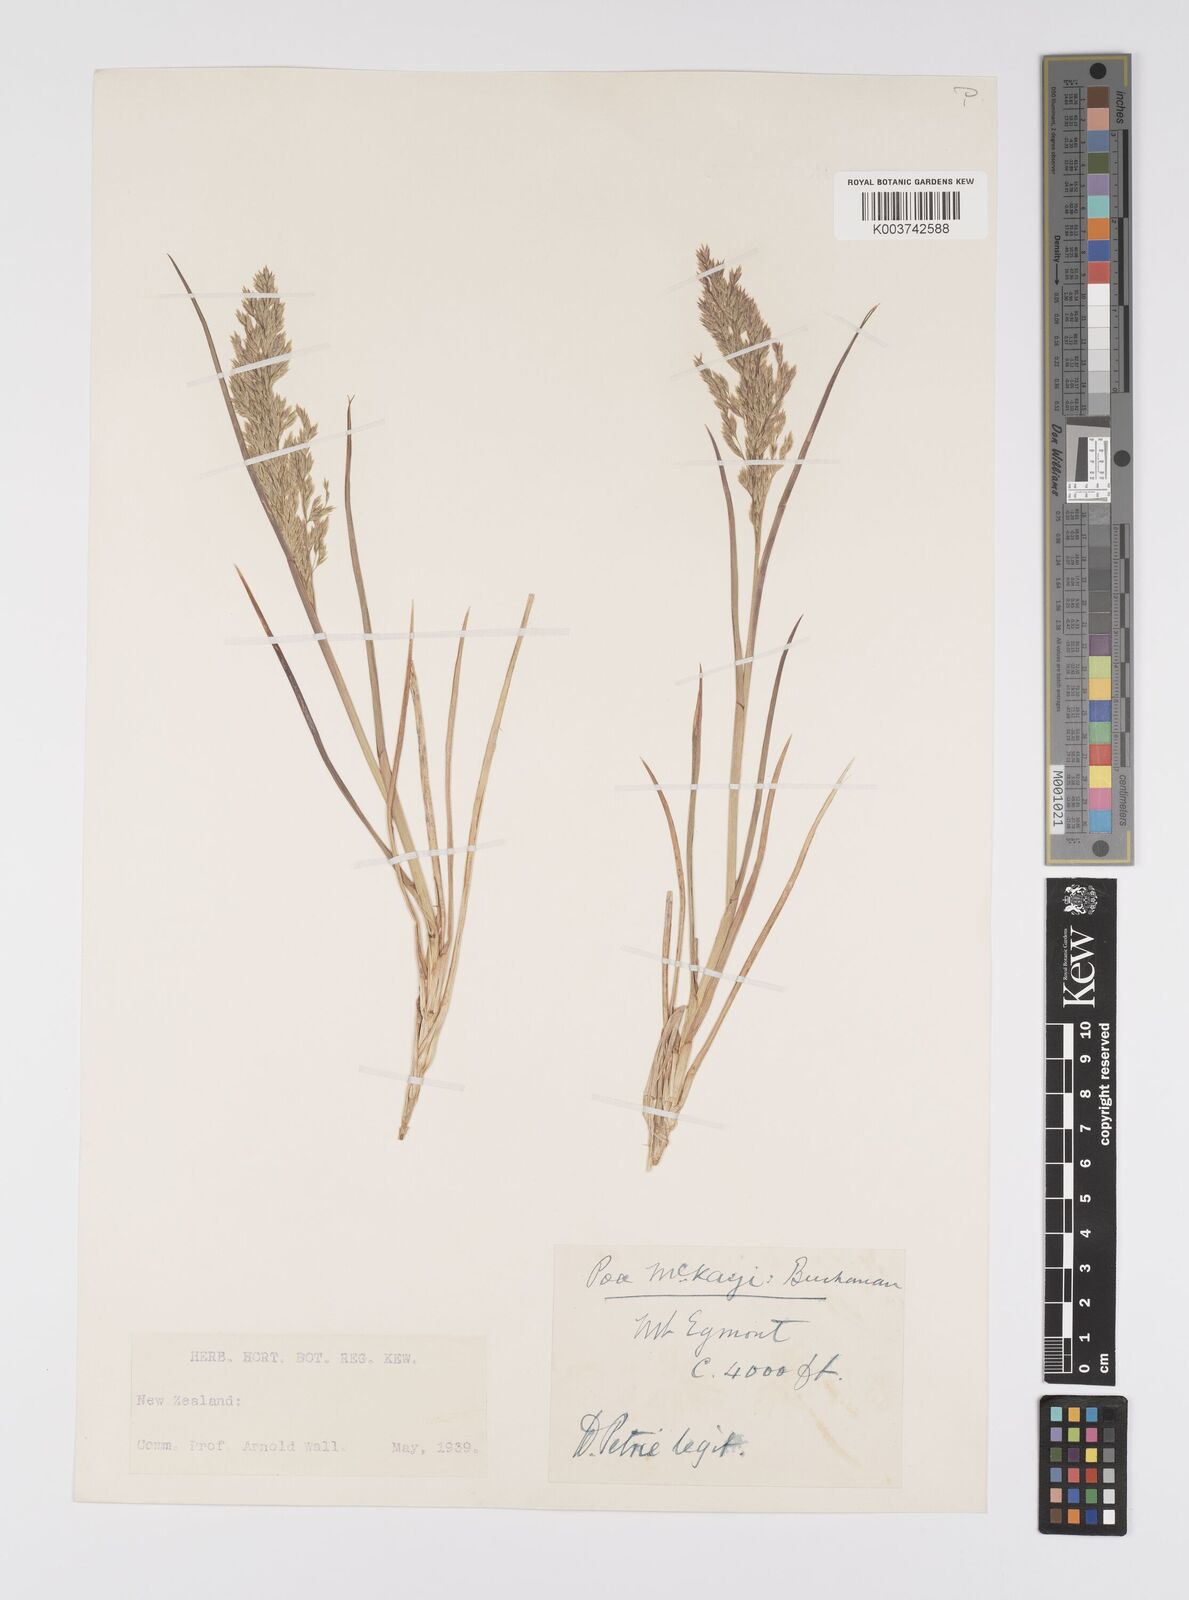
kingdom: Plantae
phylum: Tracheophyta
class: Liliopsida
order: Poales
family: Poaceae
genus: Poa
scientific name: Poa anceps
